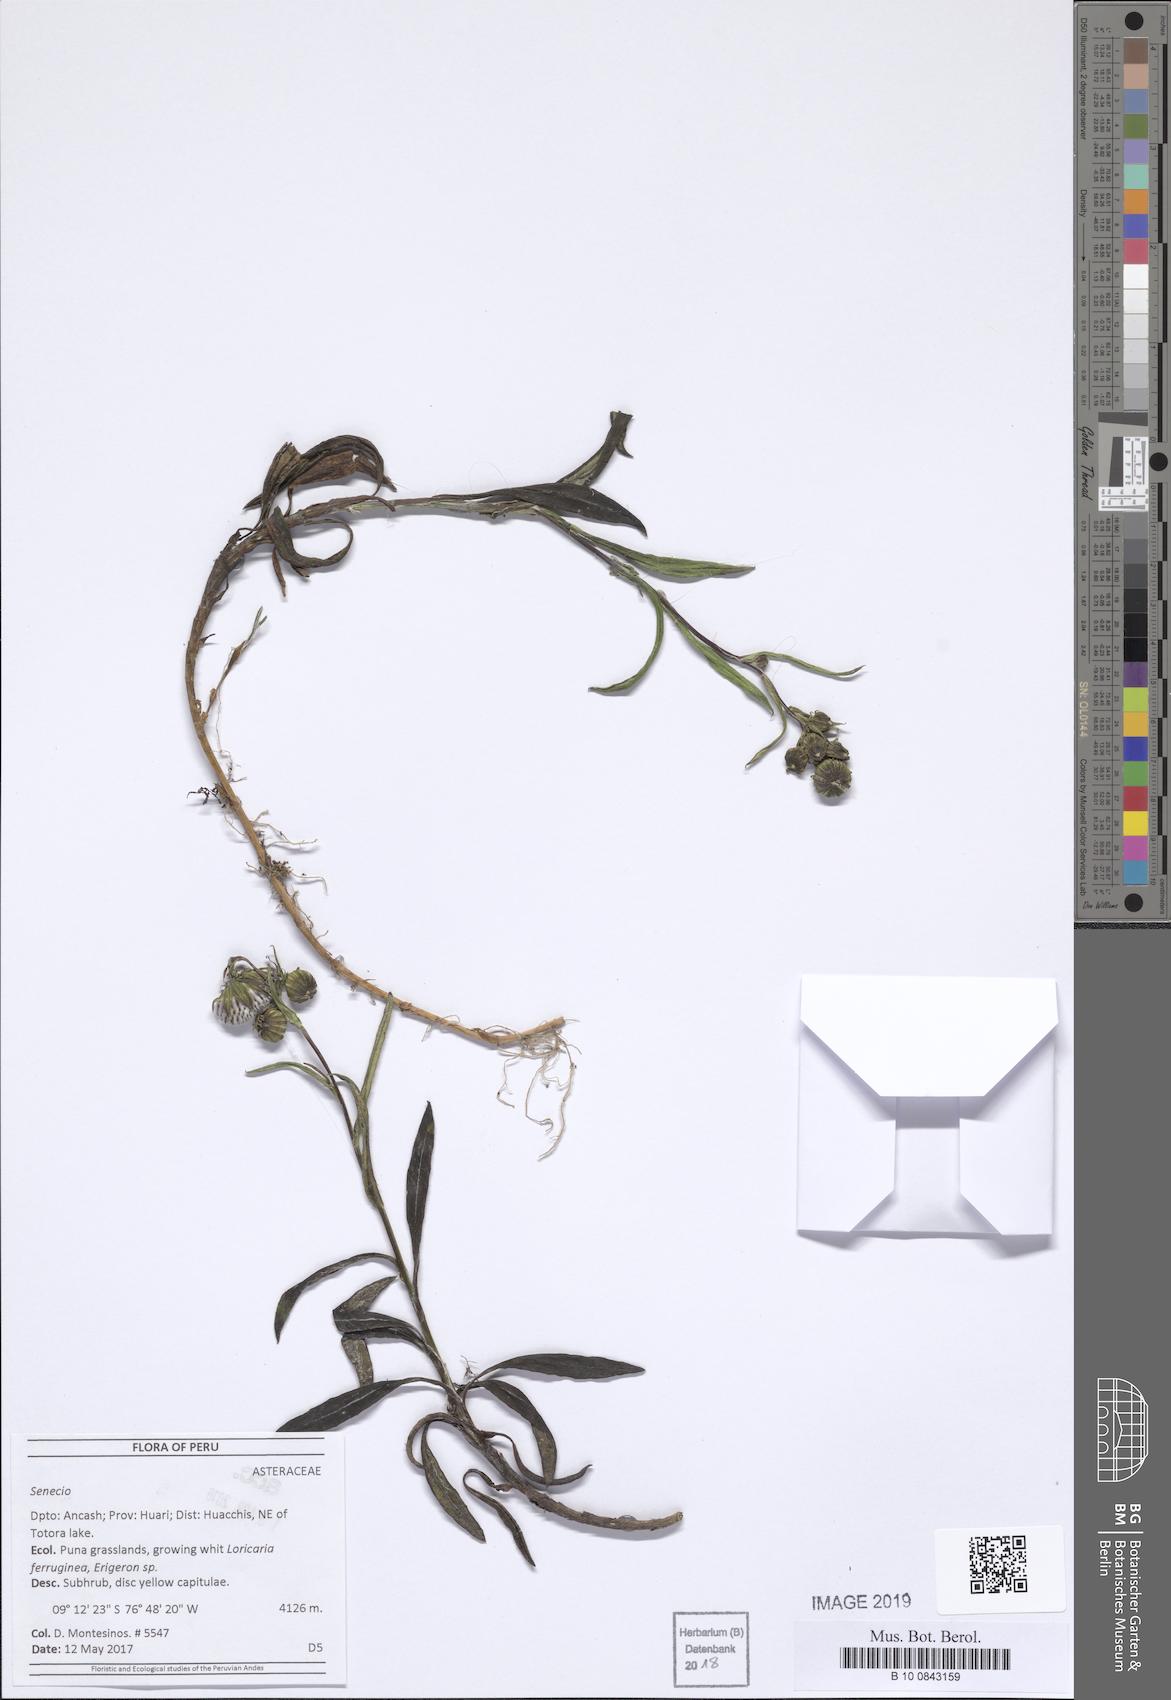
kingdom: Plantae
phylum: Tracheophyta
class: Magnoliopsida
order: Asterales
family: Asteraceae
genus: Senecio
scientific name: Senecio arachnolomus
